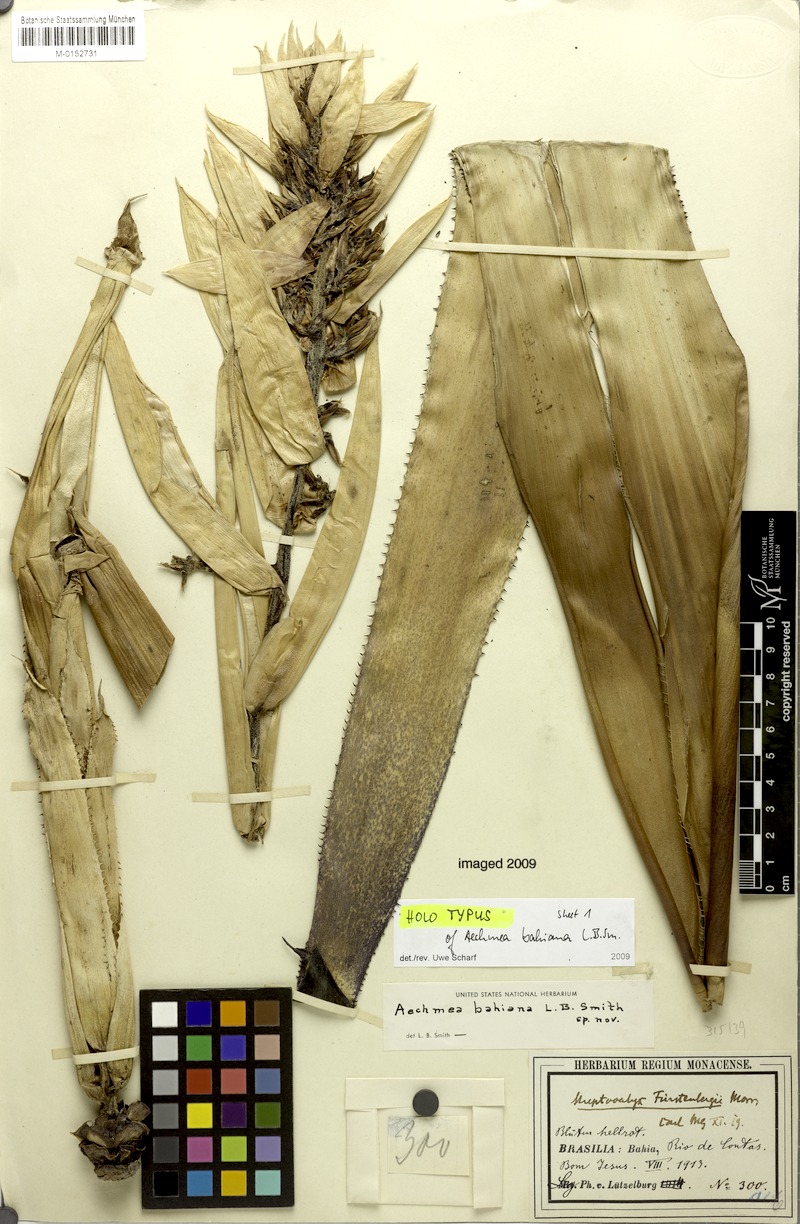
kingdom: Plantae
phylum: Tracheophyta
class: Liliopsida
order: Poales
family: Bromeliaceae
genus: Aechmea
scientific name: Aechmea bahiana
